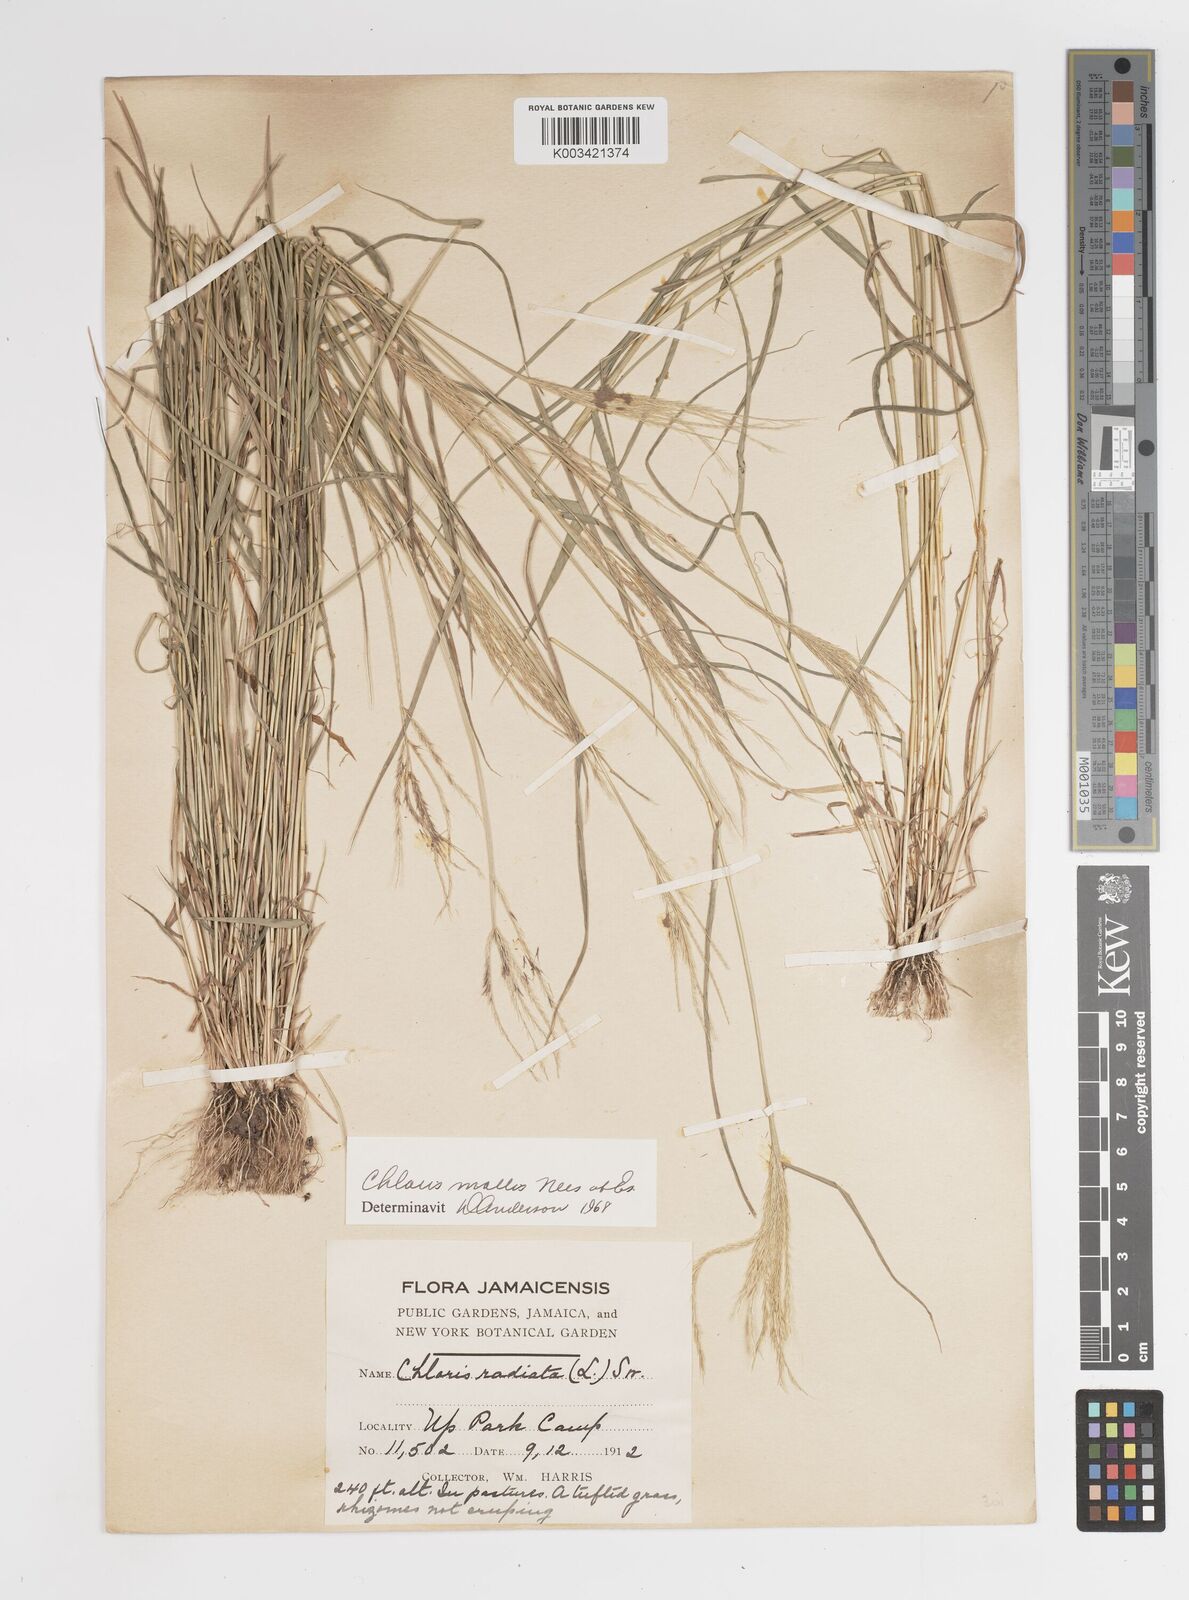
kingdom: Plantae
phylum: Tracheophyta
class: Liliopsida
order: Poales
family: Poaceae
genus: Leptochloa
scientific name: Leptochloa anisopoda
